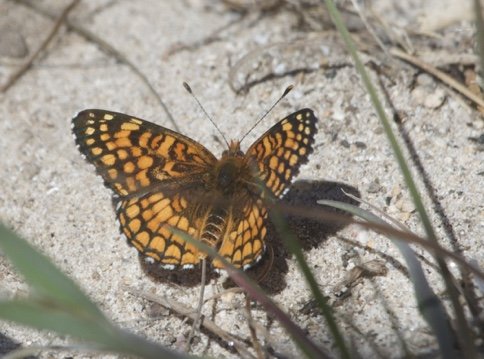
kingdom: Animalia
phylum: Arthropoda
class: Insecta
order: Lepidoptera
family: Nymphalidae
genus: Chlosyne
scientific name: Chlosyne acastus
